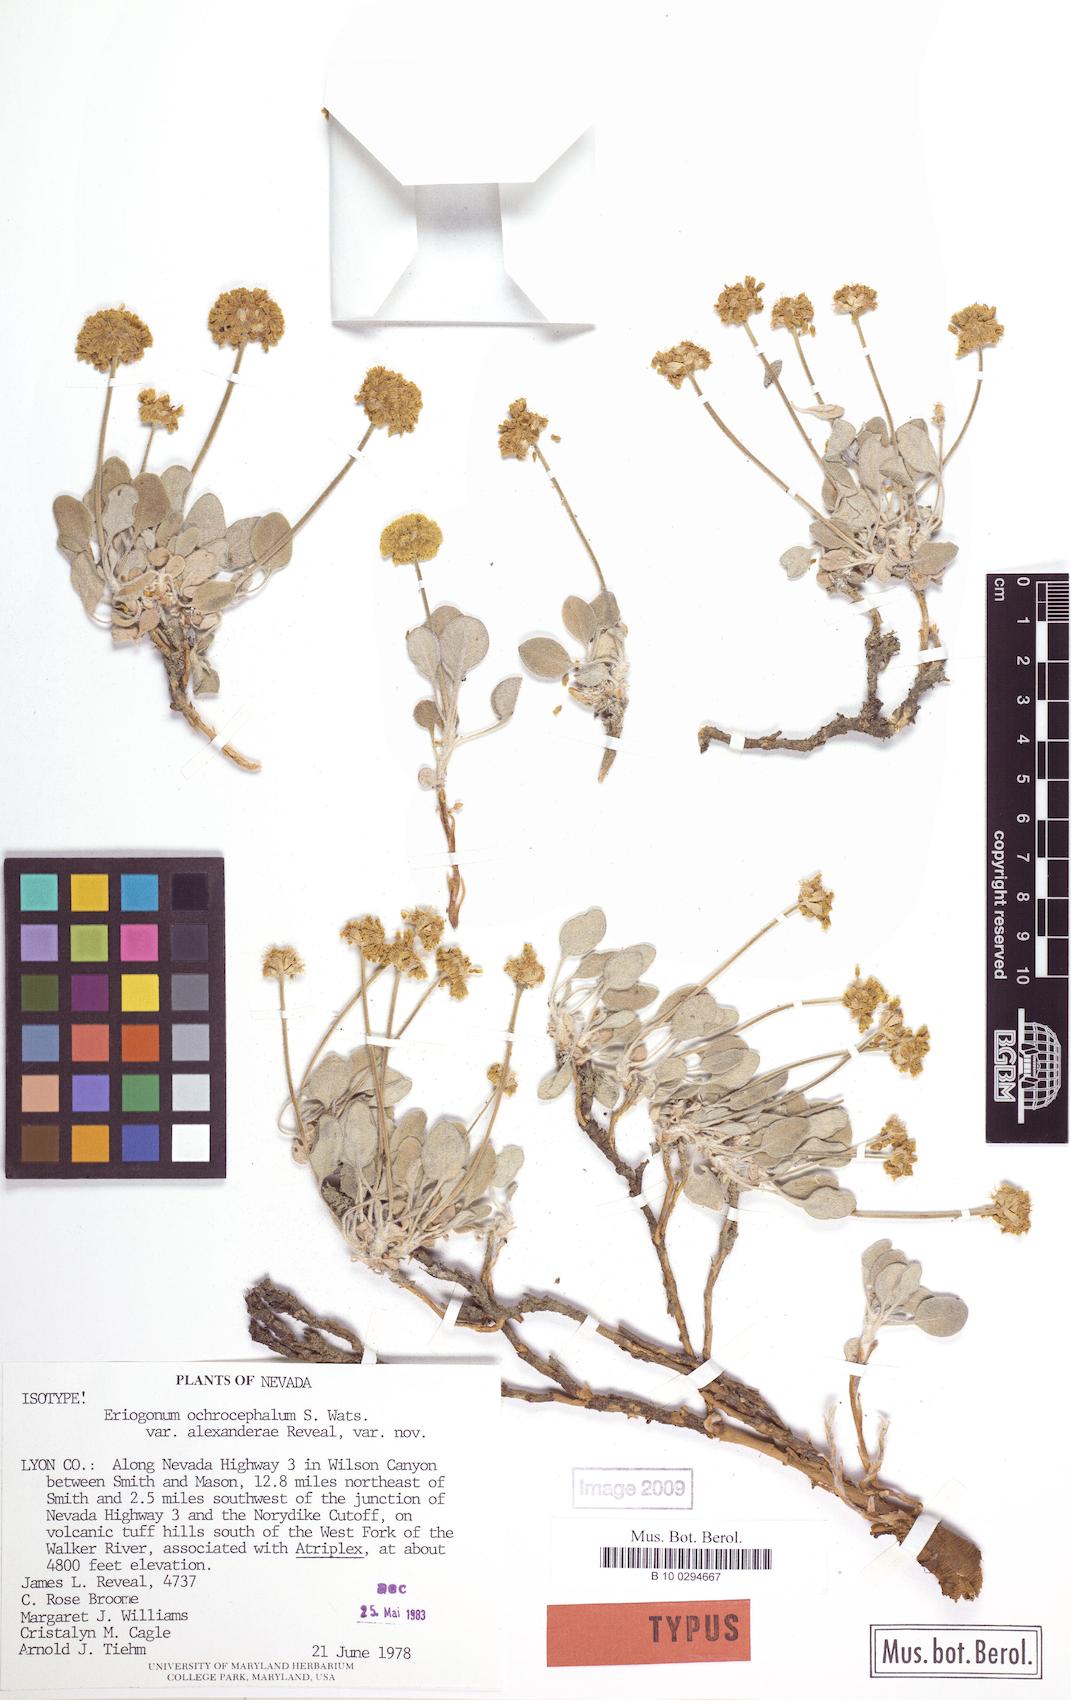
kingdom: Plantae
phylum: Tracheophyta
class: Magnoliopsida
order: Caryophyllales
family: Polygonaceae
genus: Eriogonum
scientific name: Eriogonum alexanderae
